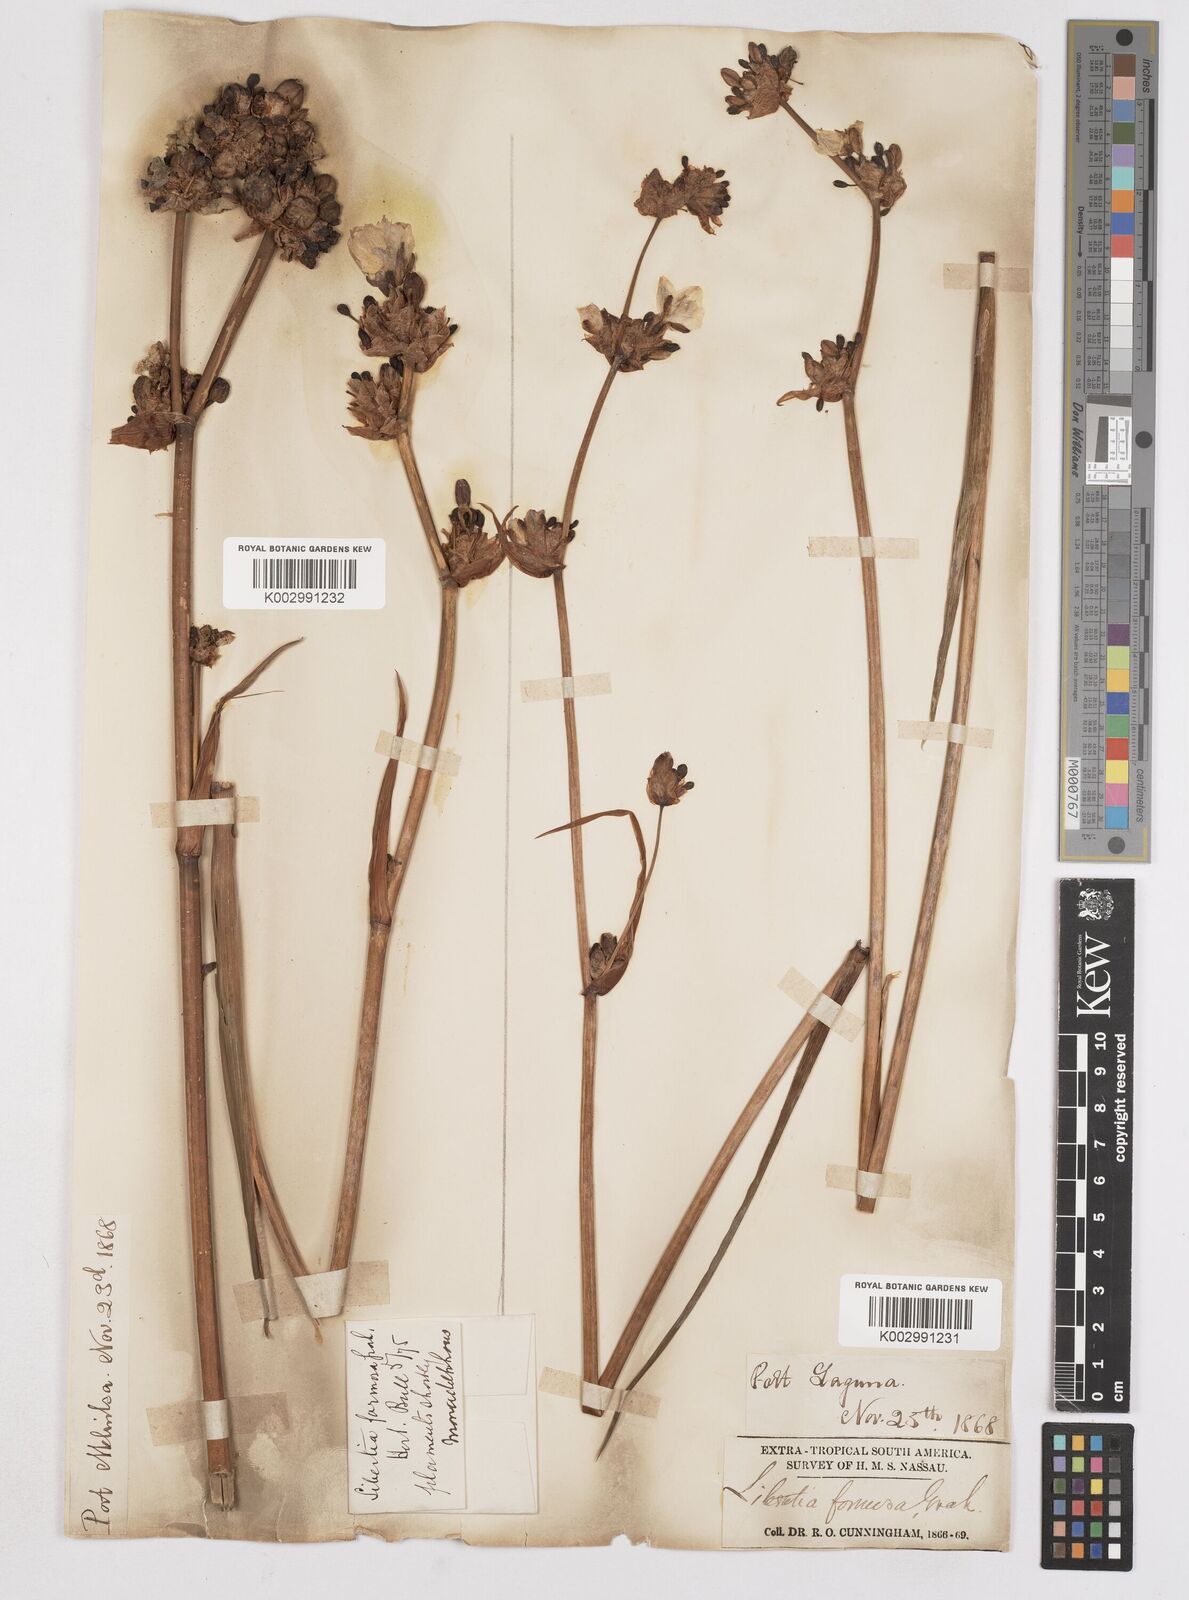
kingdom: Plantae
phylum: Tracheophyta
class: Liliopsida
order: Asparagales
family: Iridaceae
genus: Libertia
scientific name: Libertia chilensis
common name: Satin flower
